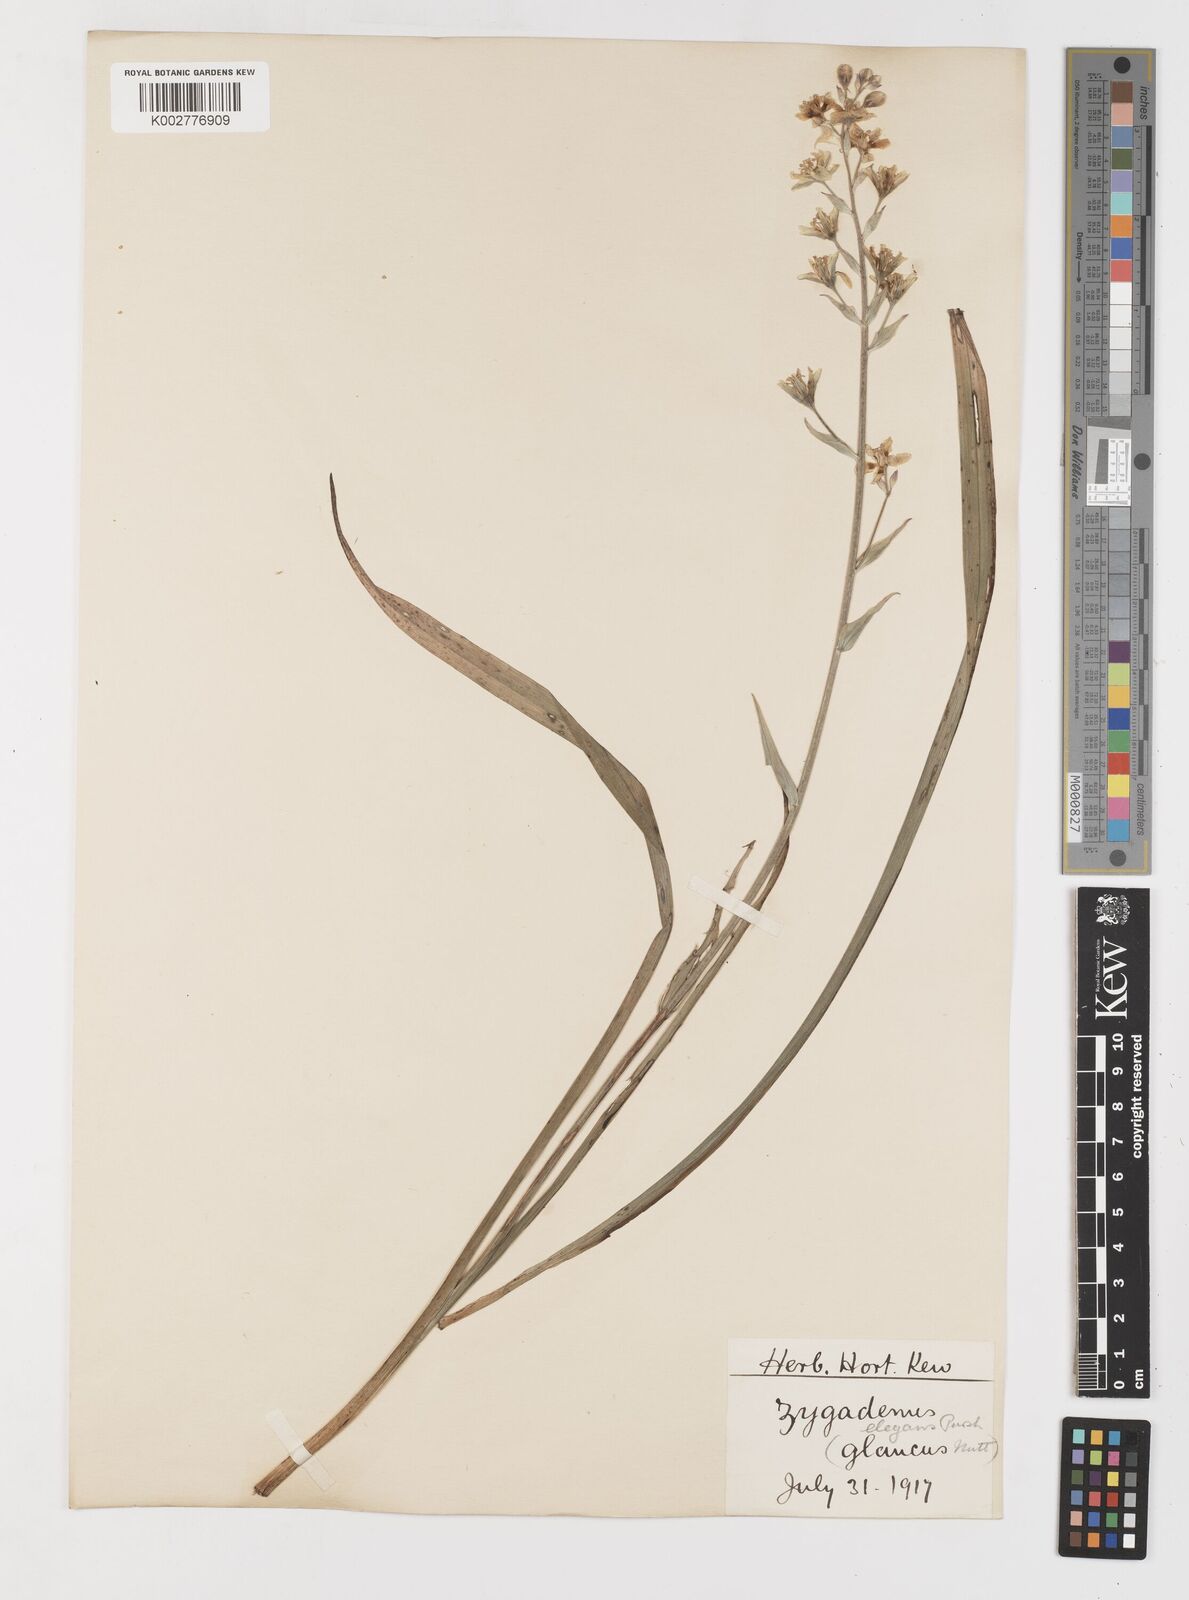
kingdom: Plantae
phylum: Tracheophyta
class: Liliopsida
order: Liliales
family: Melanthiaceae
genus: Anticlea
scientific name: Anticlea elegans
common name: Mountain death camas
